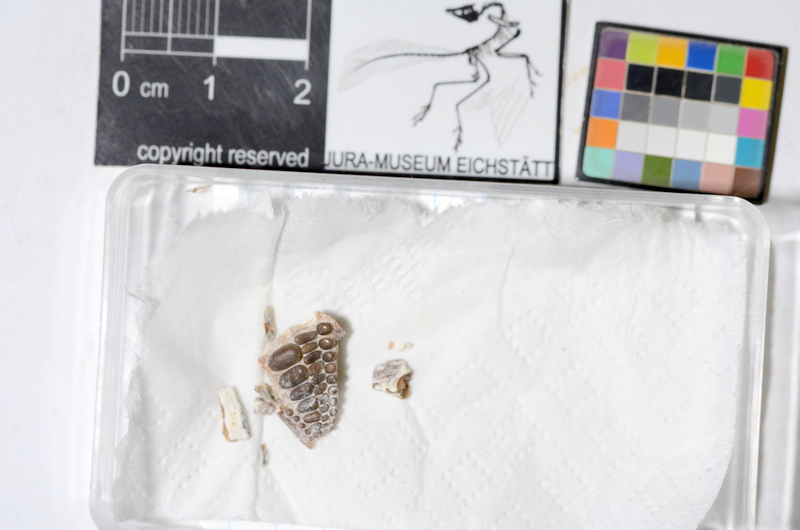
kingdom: Animalia
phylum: Chordata
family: Pycnodontidae
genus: Proscinetes
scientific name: Proscinetes
